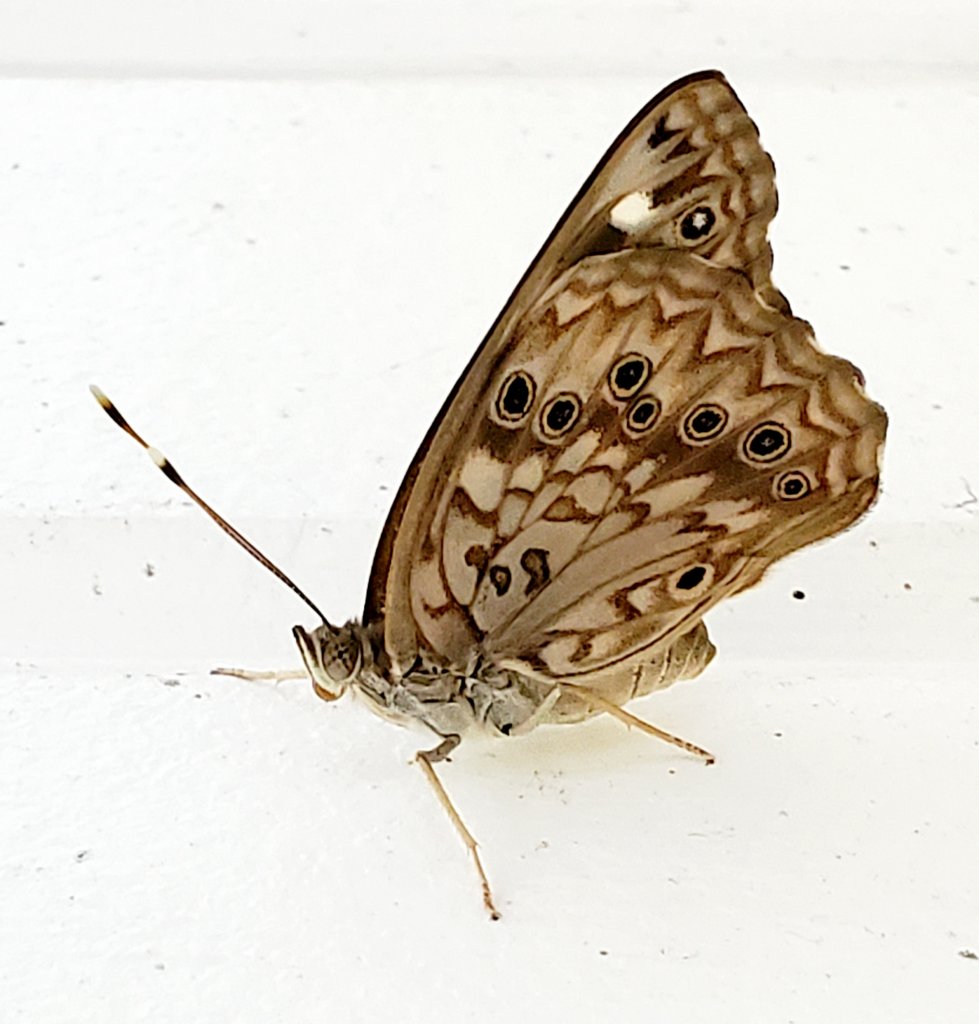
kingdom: Animalia
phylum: Arthropoda
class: Insecta
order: Lepidoptera
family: Nymphalidae
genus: Asterocampa
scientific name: Asterocampa celtis
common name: Hackberry Emperor
